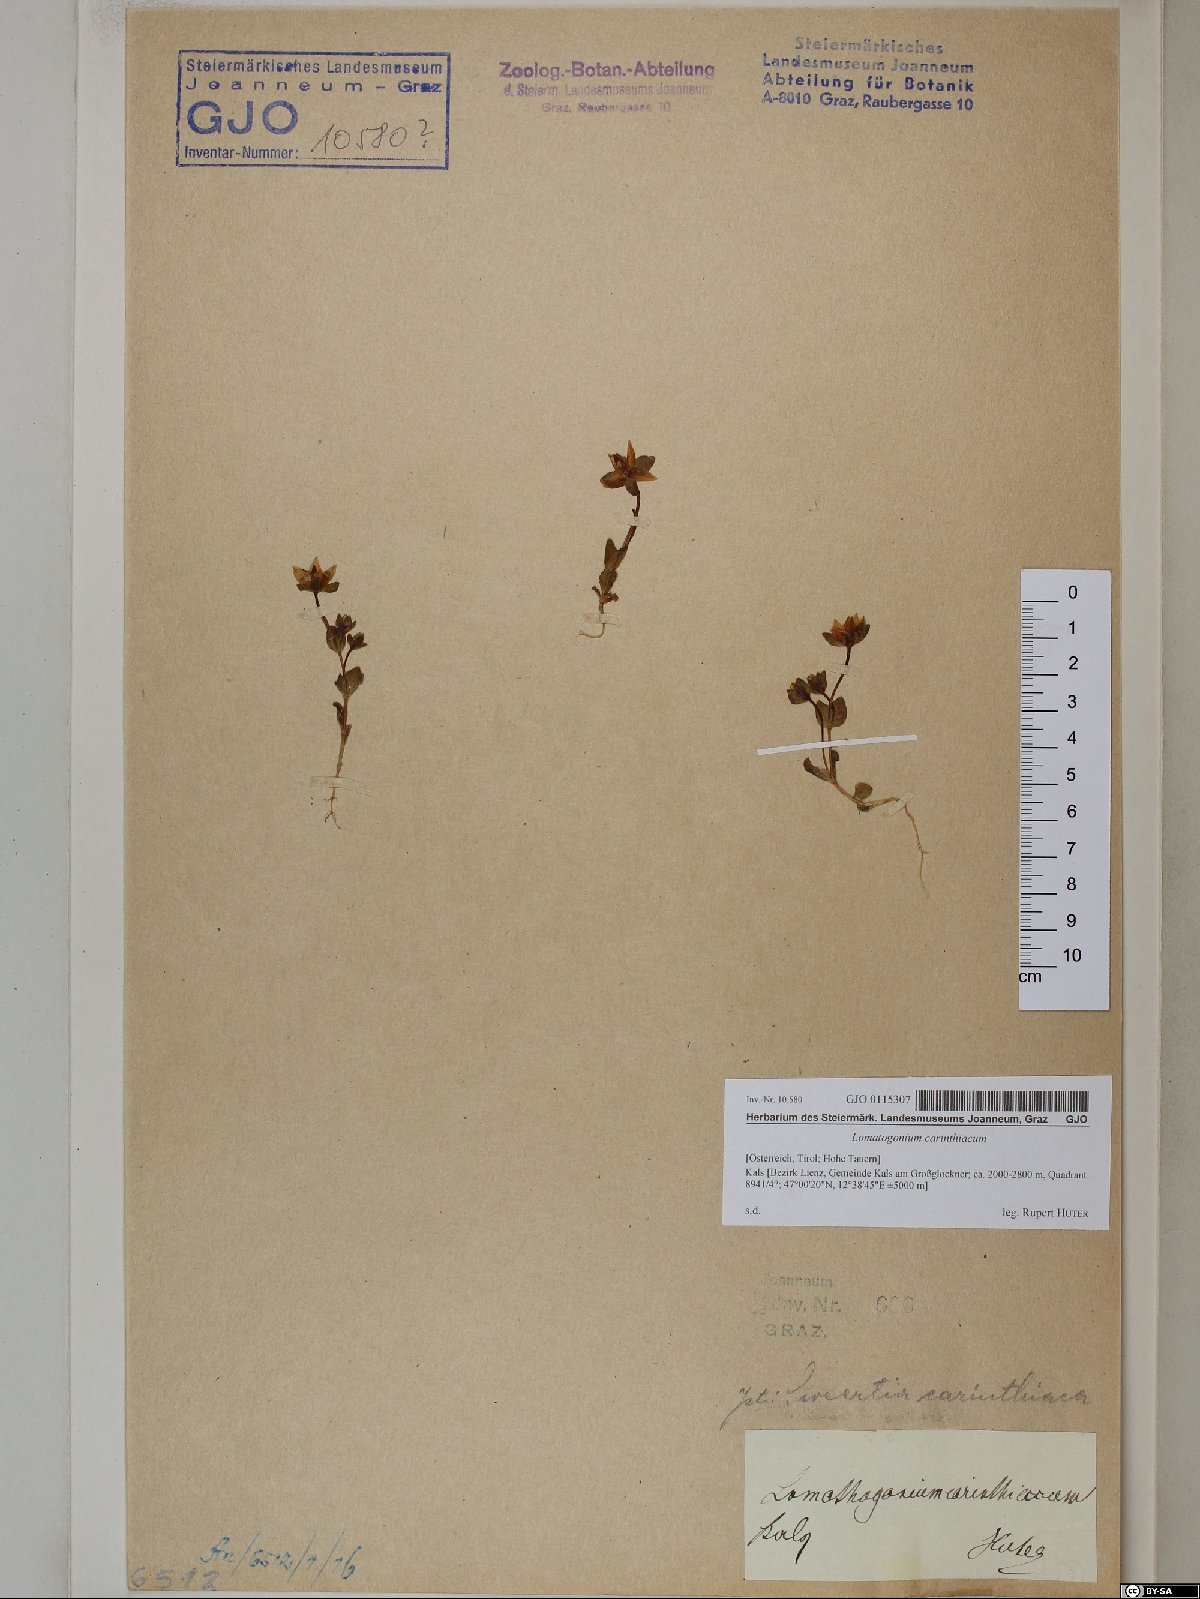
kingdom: Plantae
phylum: Tracheophyta
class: Magnoliopsida
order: Gentianales
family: Gentianaceae
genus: Lomatogonium
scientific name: Lomatogonium carinthiacum
